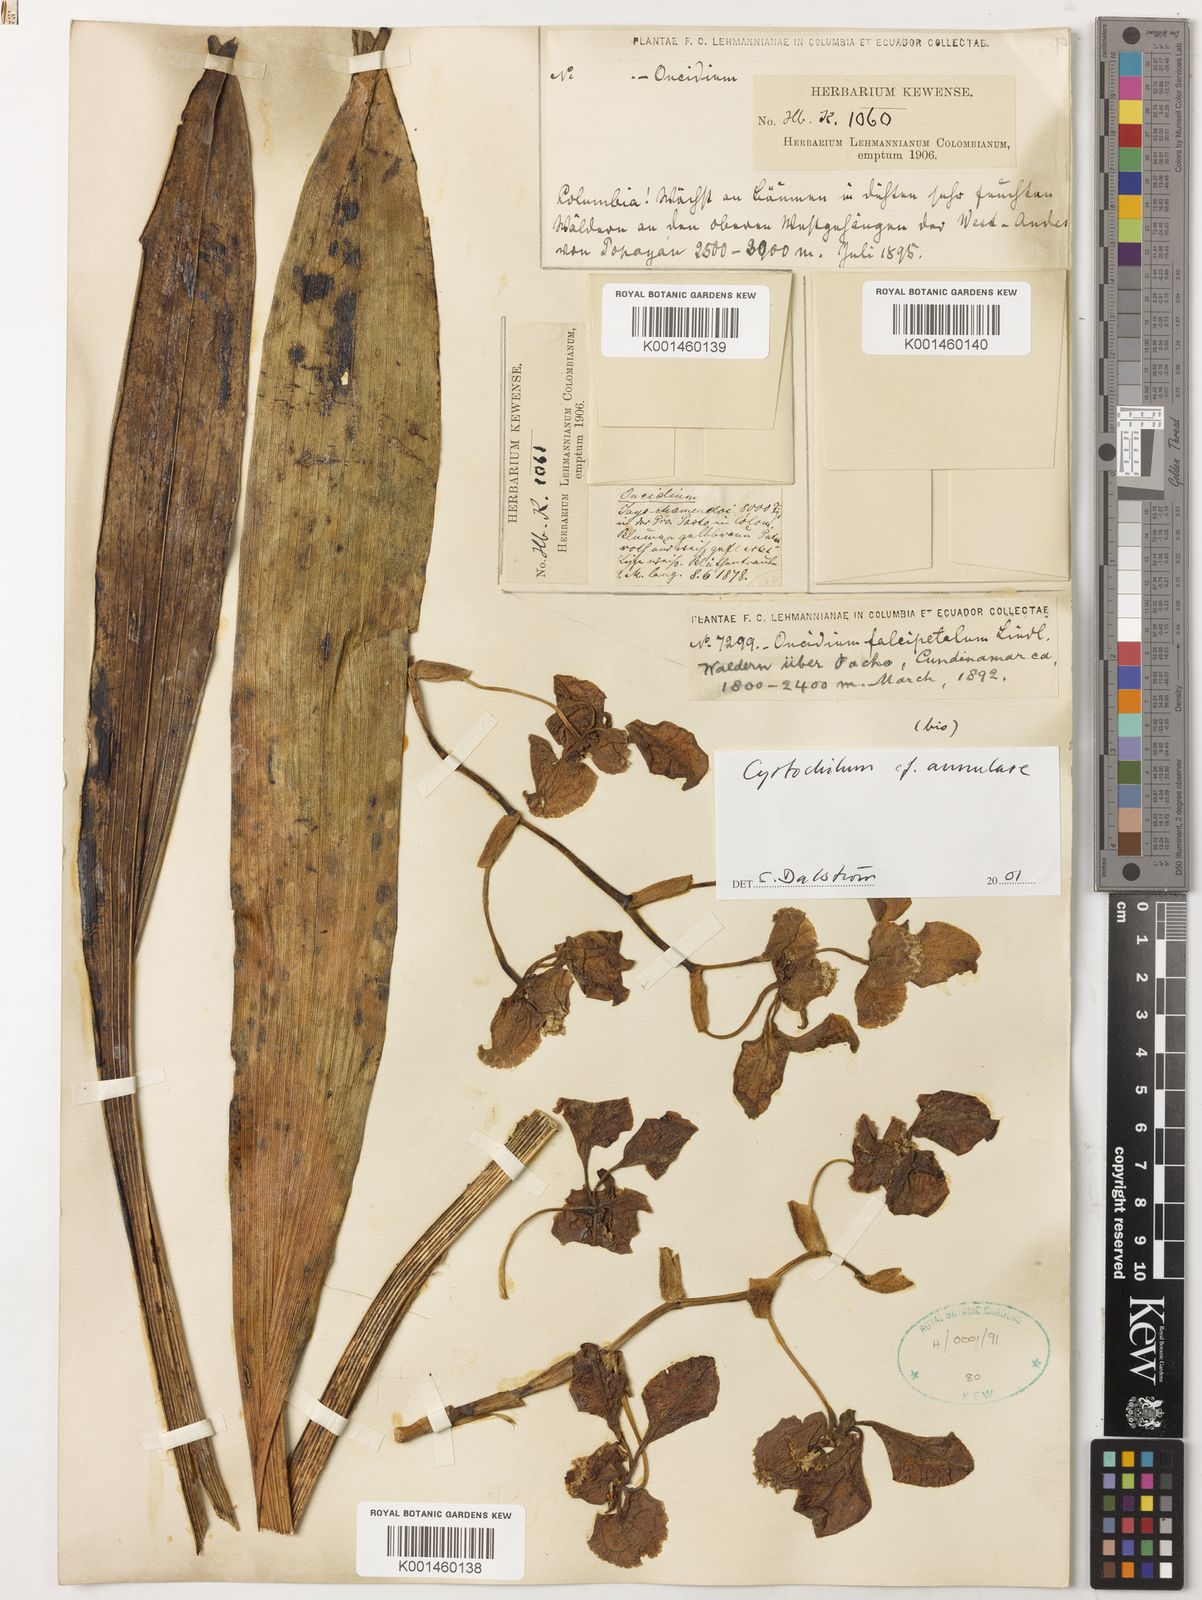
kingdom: Plantae
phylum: Tracheophyta
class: Liliopsida
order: Asparagales
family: Orchidaceae
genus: Cyrtochilum
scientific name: Cyrtochilum annulare
